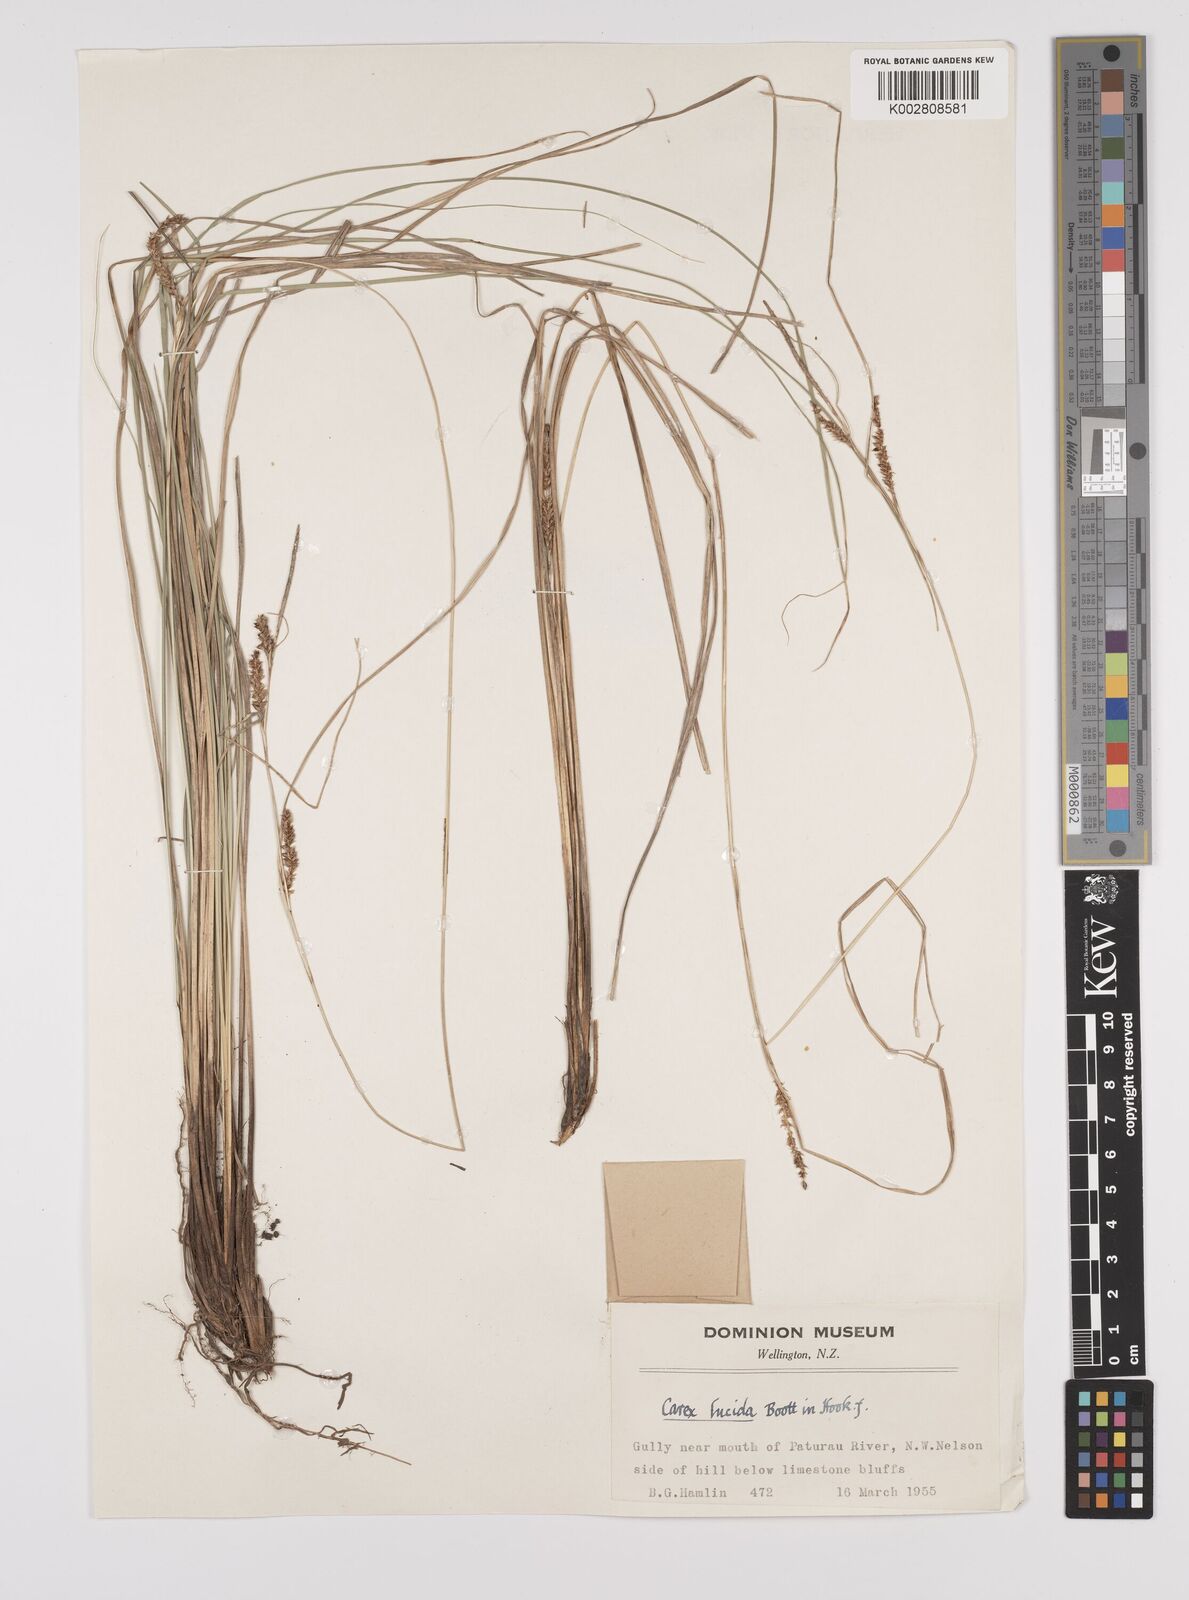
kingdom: Plantae
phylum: Tracheophyta
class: Liliopsida
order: Poales
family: Cyperaceae
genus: Carex
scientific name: Carex flagellifera
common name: Glen murray tussock
